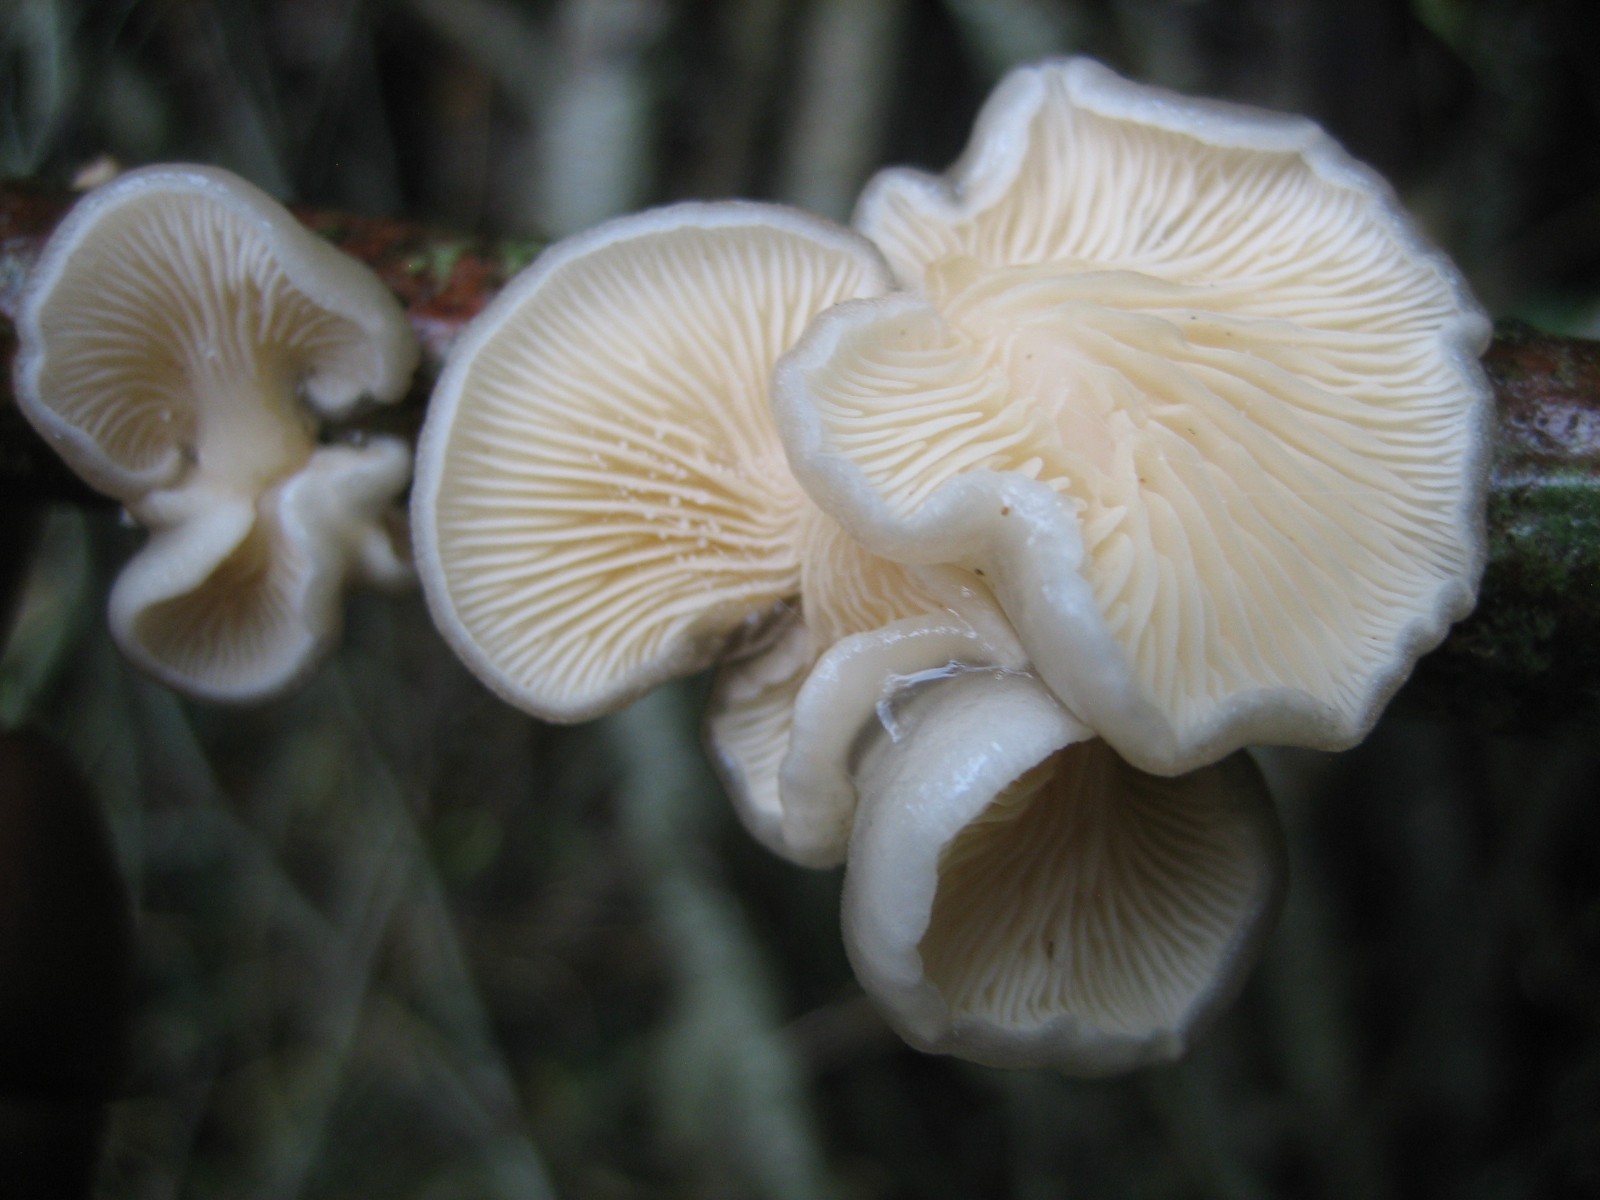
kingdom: Fungi
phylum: Basidiomycota
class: Agaricomycetes
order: Agaricales
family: Pleurotaceae
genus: Hohenbuehelia
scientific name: Hohenbuehelia
